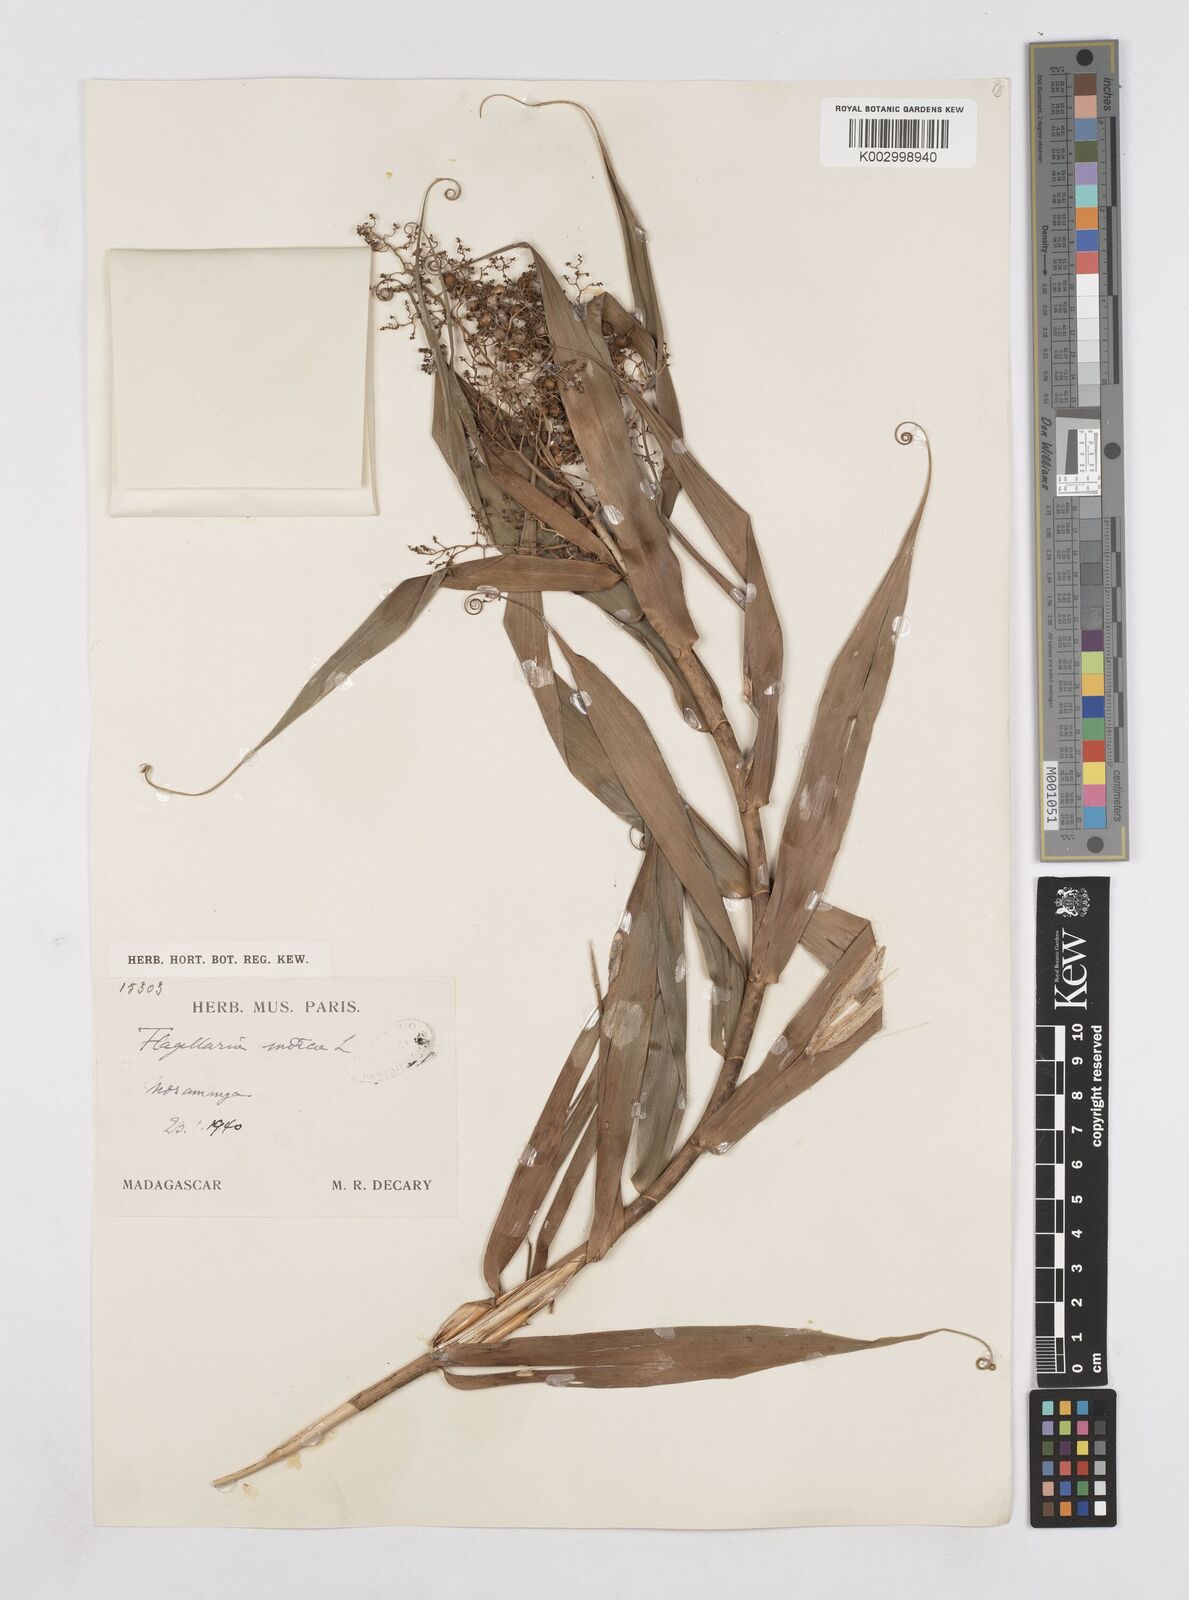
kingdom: Plantae
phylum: Tracheophyta
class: Liliopsida
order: Poales
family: Flagellariaceae
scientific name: Flagellariaceae
